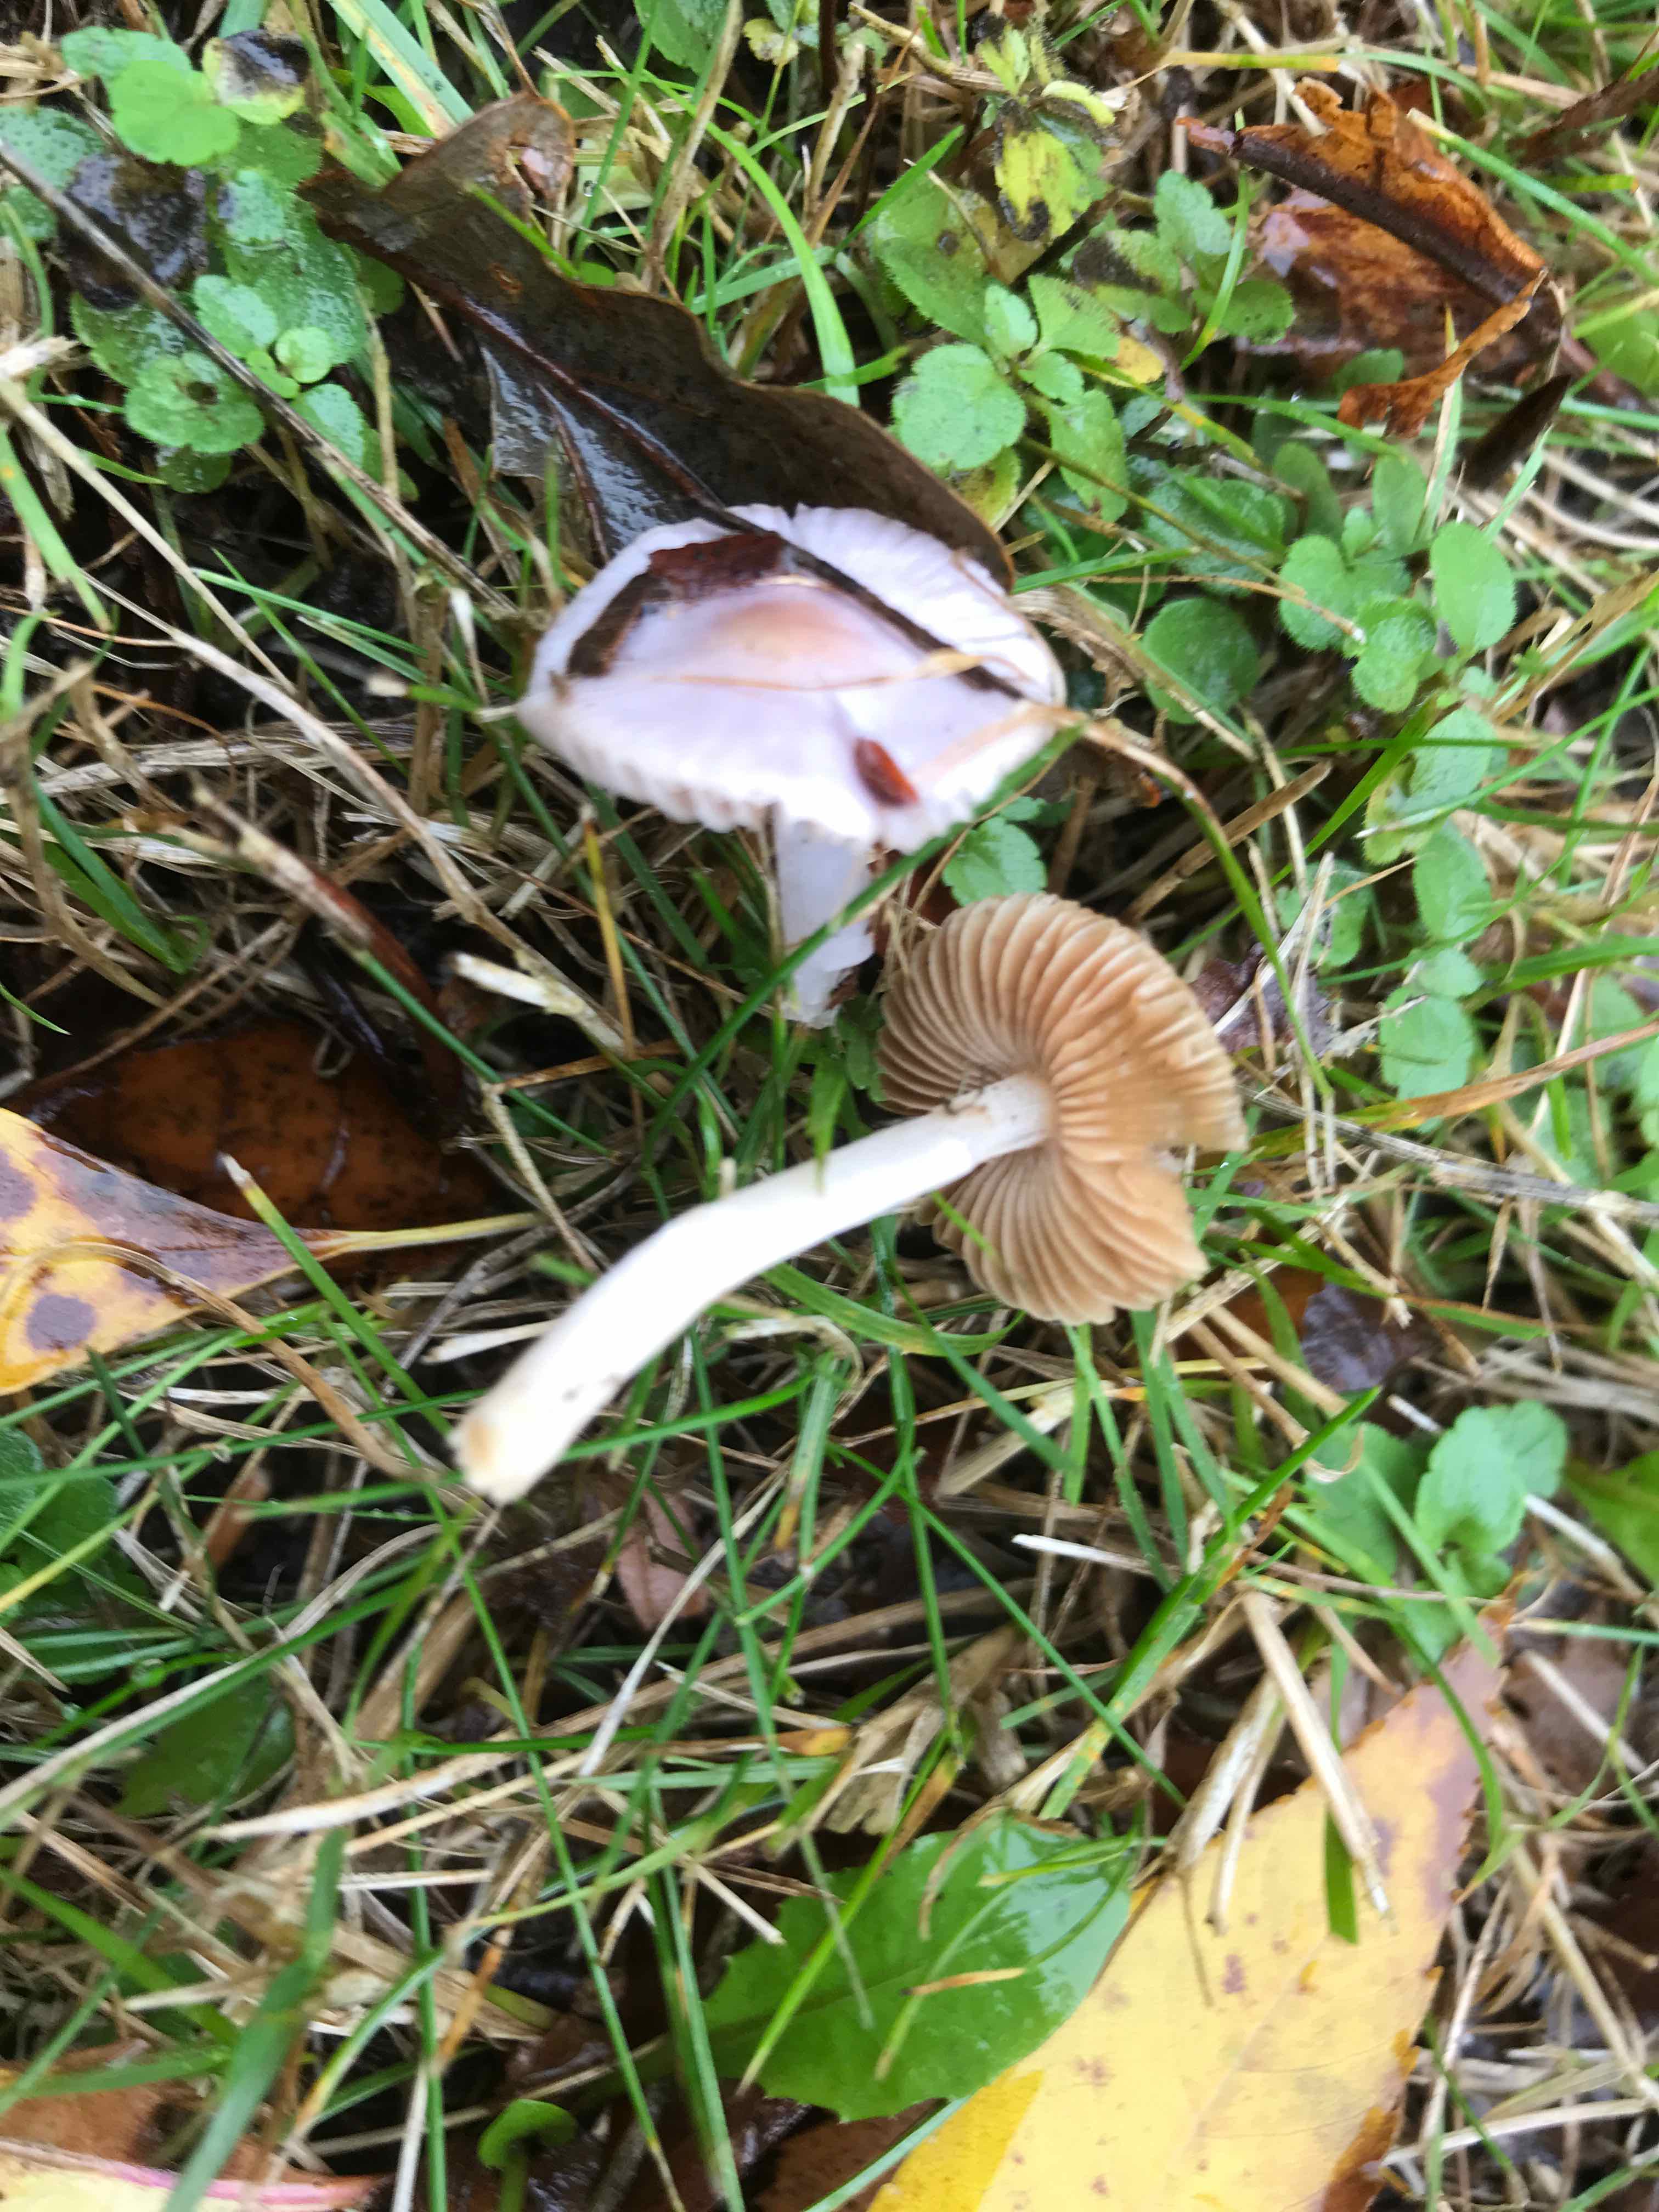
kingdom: Fungi
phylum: Basidiomycota
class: Agaricomycetes
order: Agaricales
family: Inocybaceae
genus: Inocybe
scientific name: Inocybe geophylla
